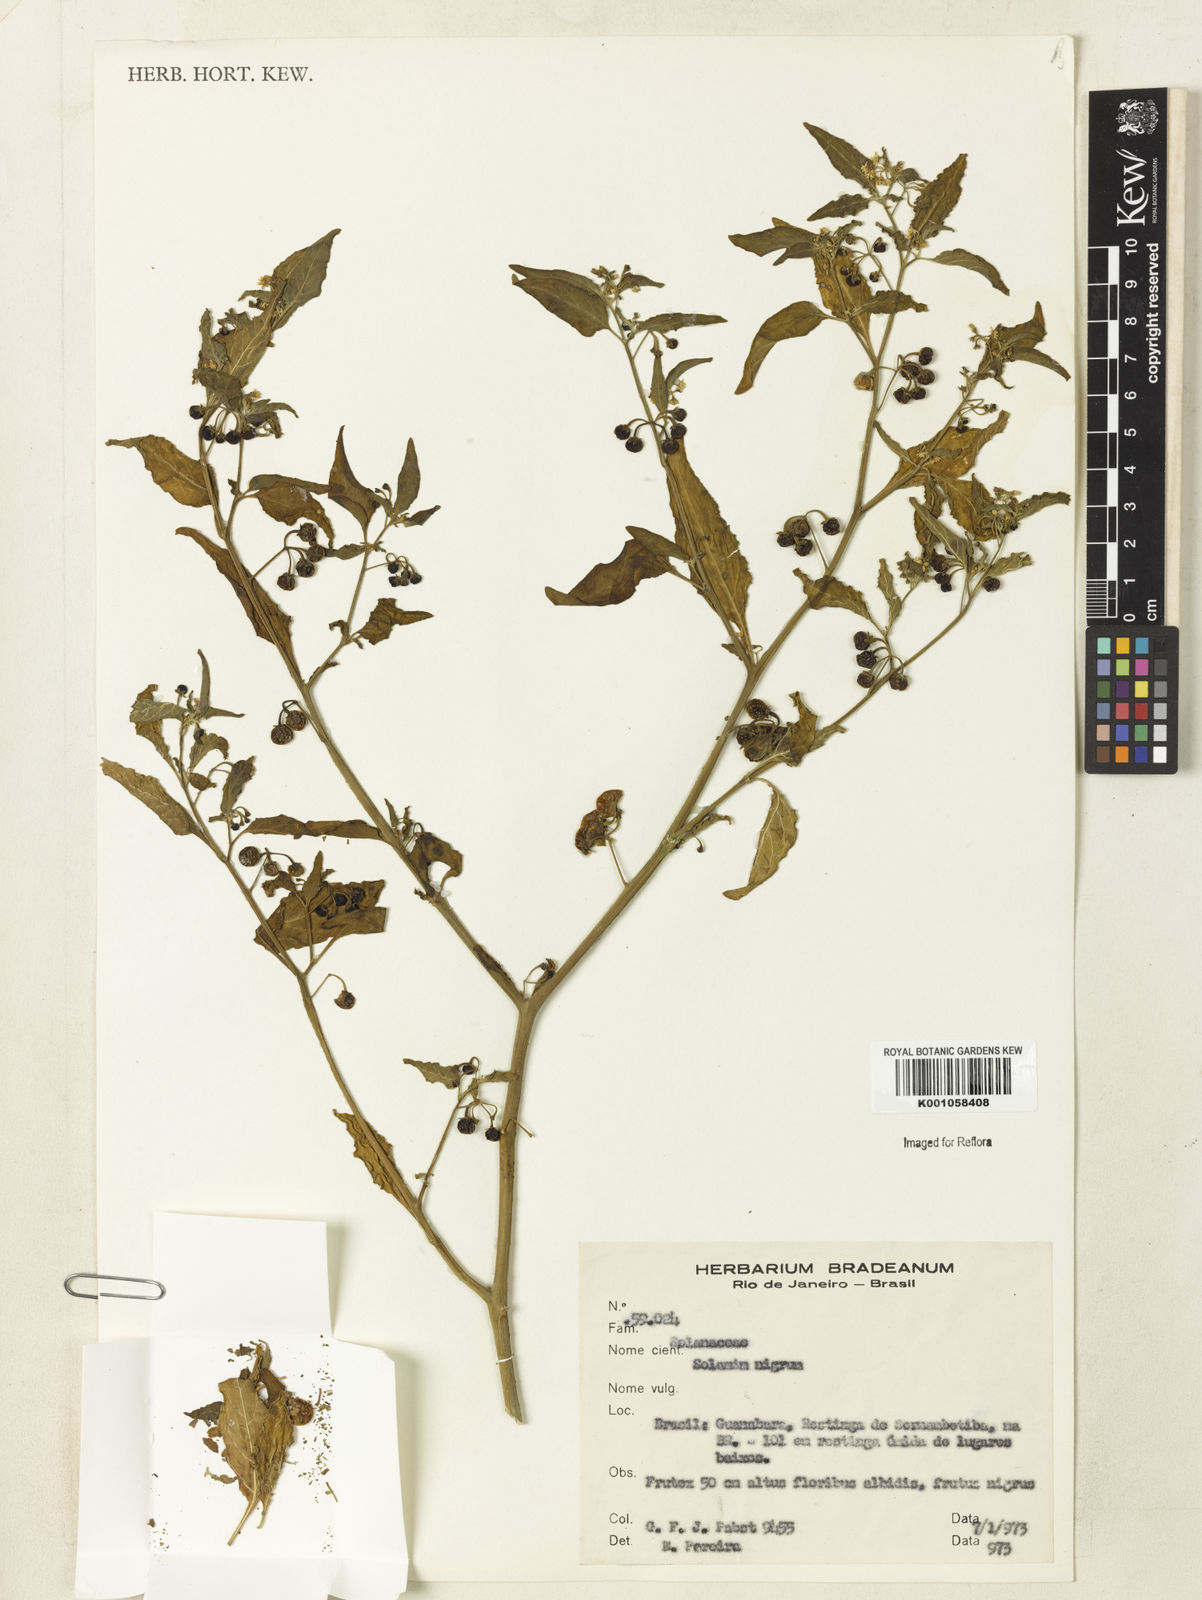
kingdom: Plantae
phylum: Tracheophyta
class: Magnoliopsida
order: Solanales
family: Solanaceae
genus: Solanum
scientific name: Solanum nigrum
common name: Black nightshade
